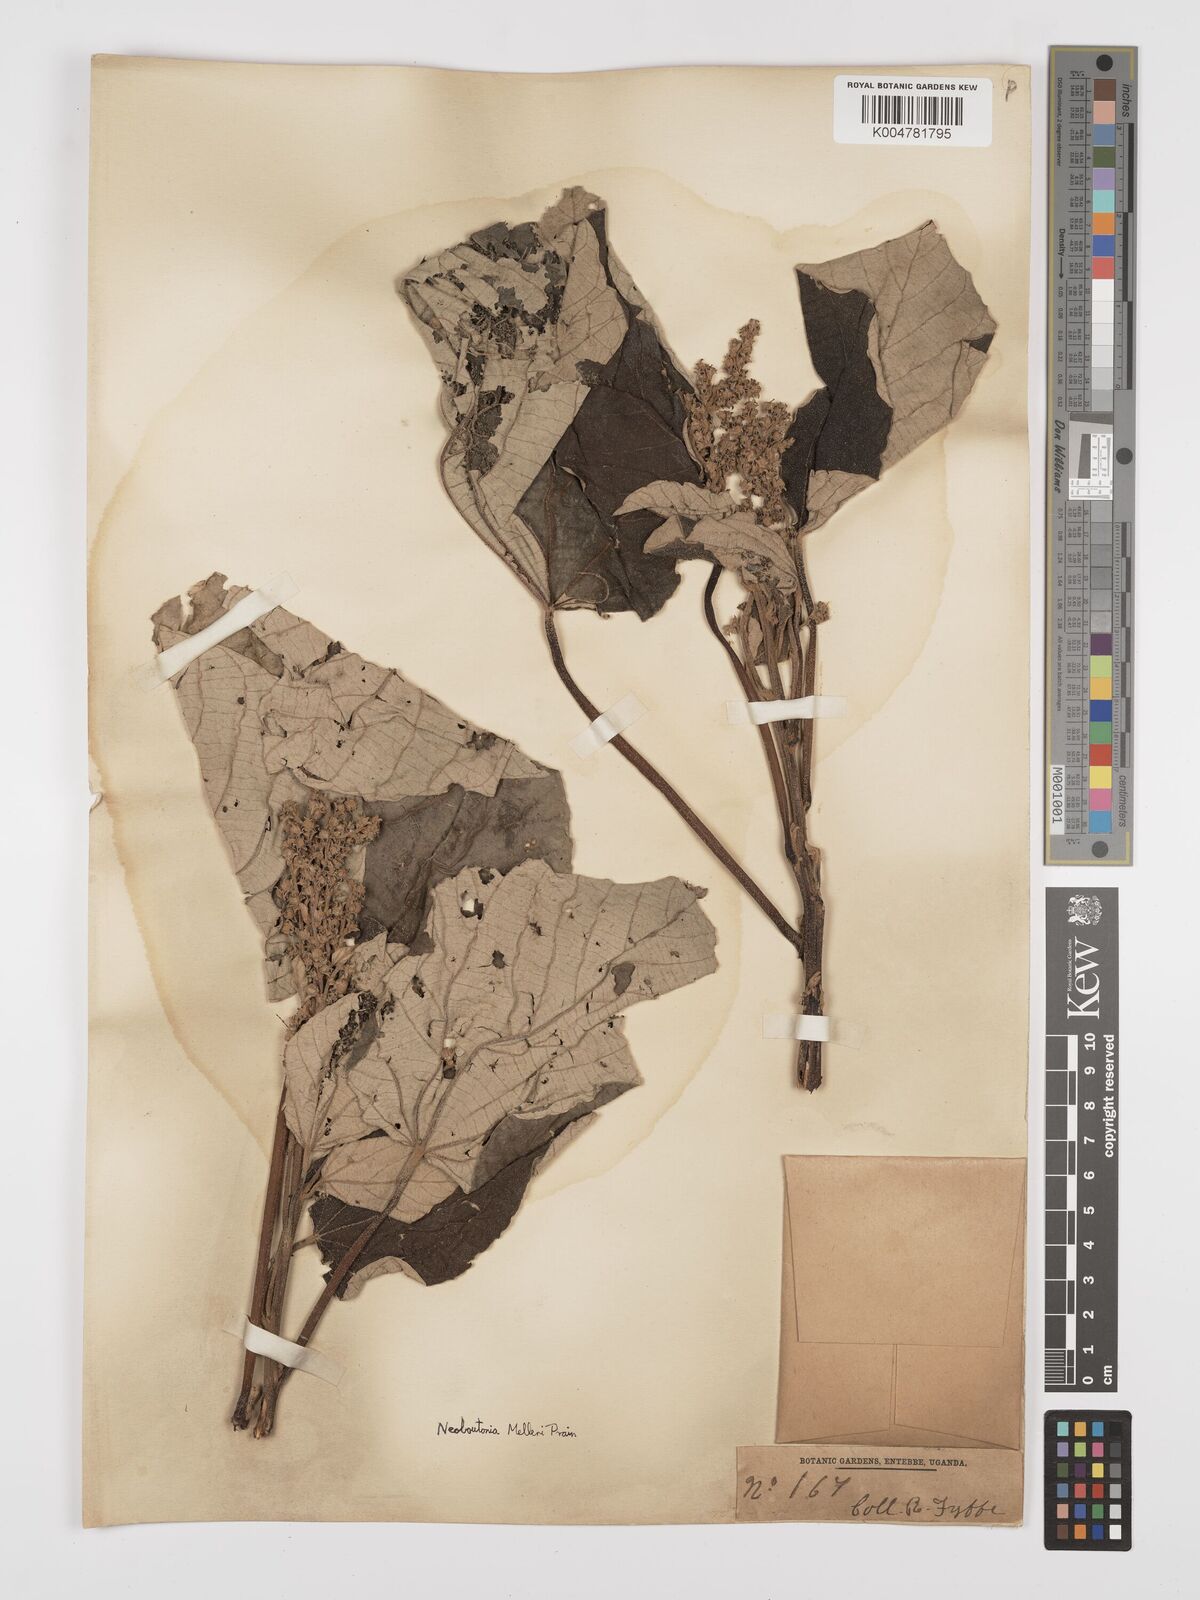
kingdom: Plantae
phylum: Tracheophyta
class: Magnoliopsida
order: Malpighiales
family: Euphorbiaceae
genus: Neoboutonia
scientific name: Neoboutonia melleri
